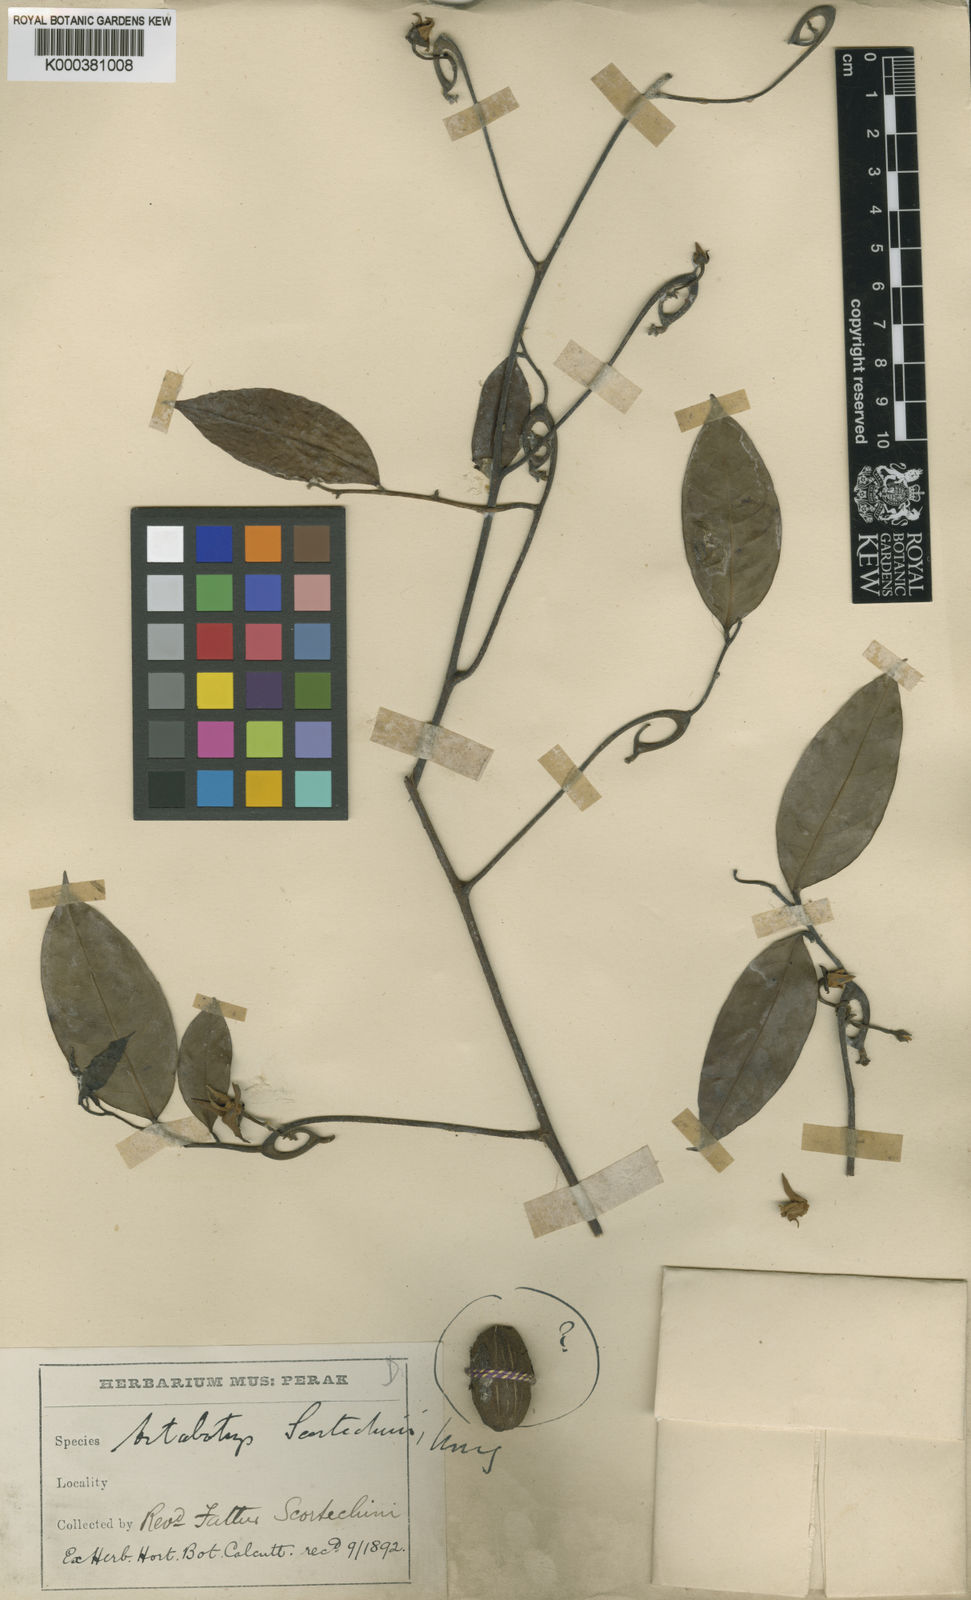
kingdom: Plantae
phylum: Tracheophyta
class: Magnoliopsida
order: Magnoliales
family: Annonaceae
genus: Artabotrys
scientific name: Artabotrys scortechinii
